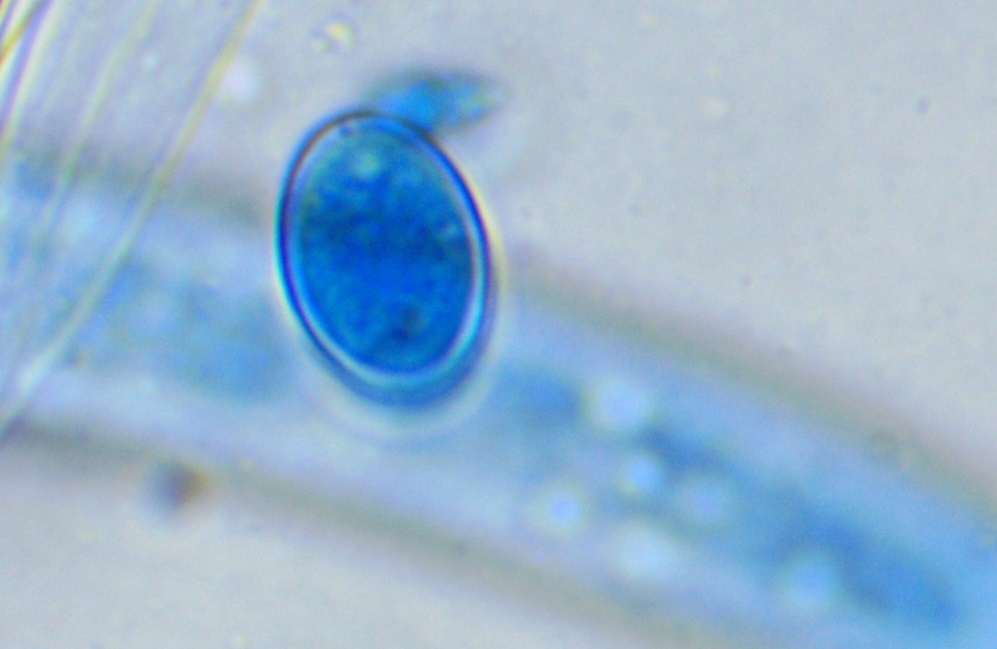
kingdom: Fungi
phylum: Ascomycota
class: Pezizomycetes
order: Pezizales
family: Pezizaceae
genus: Peziza
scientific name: Peziza varia
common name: Ved-bægersvamp
